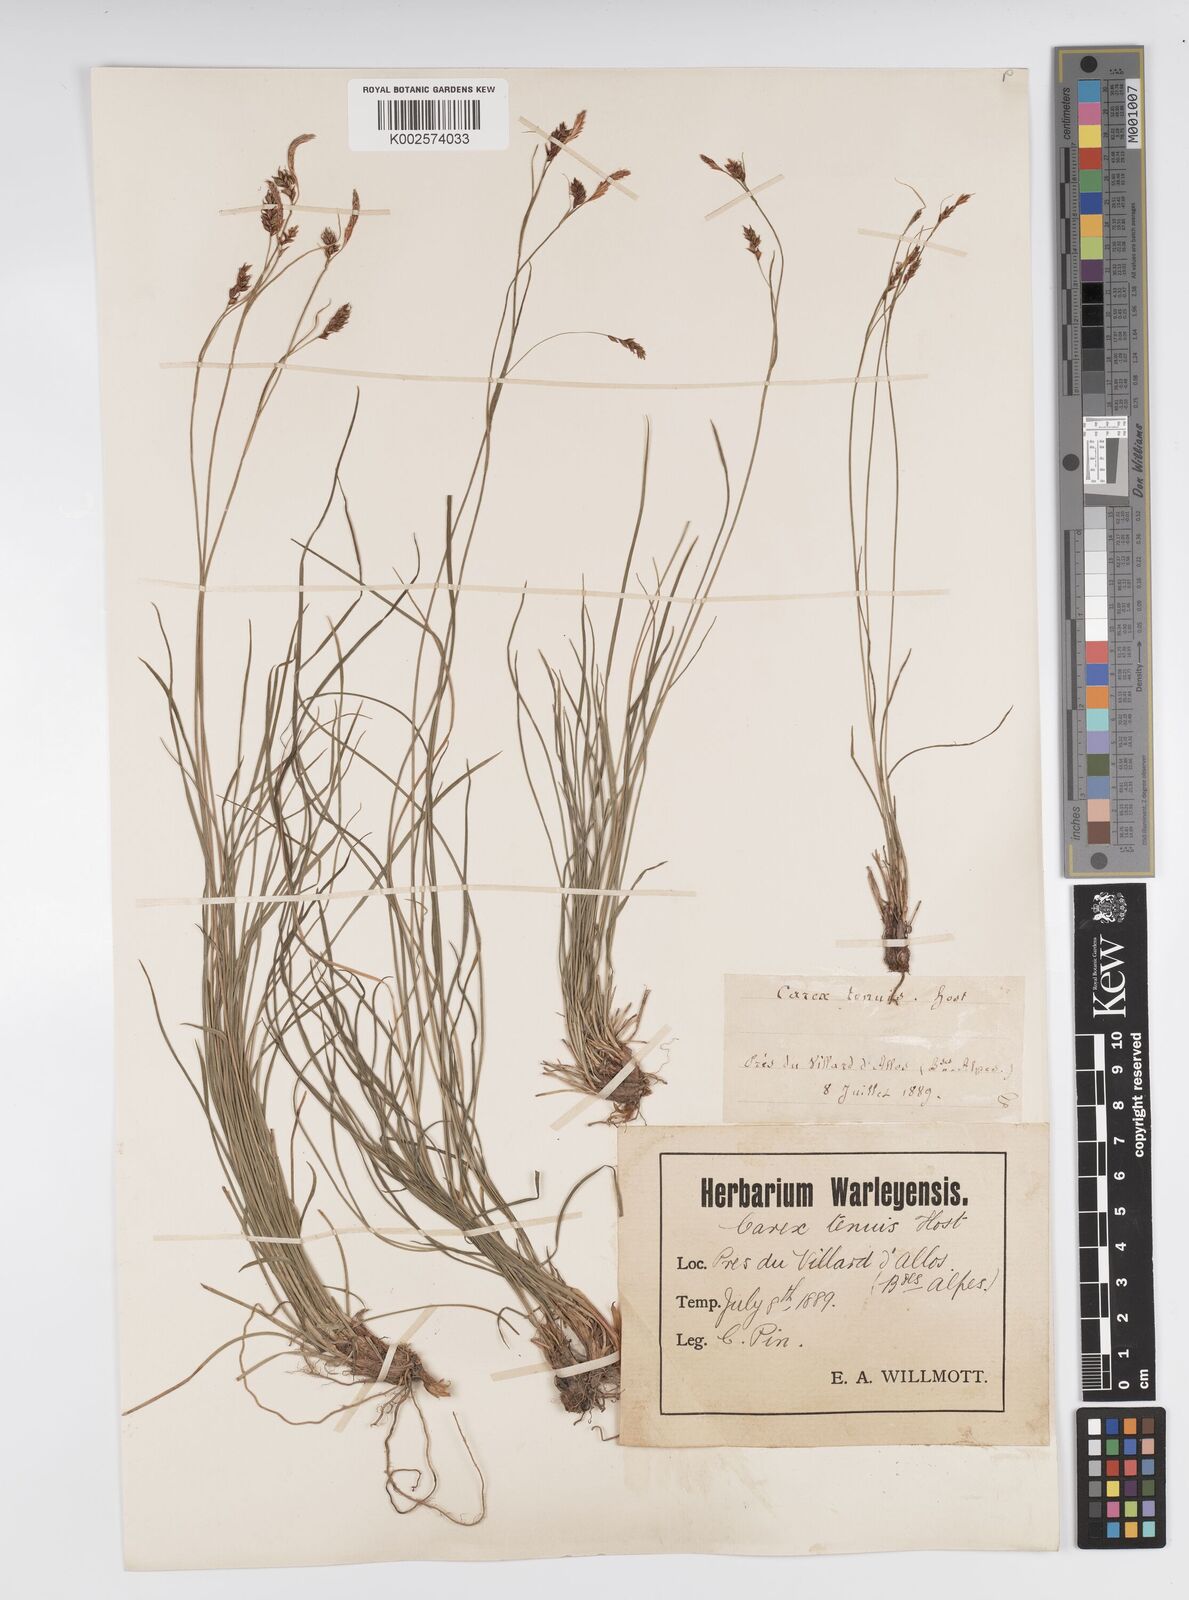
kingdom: Plantae
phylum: Tracheophyta
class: Liliopsida
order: Poales
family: Cyperaceae
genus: Carex
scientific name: Carex brachystachys
